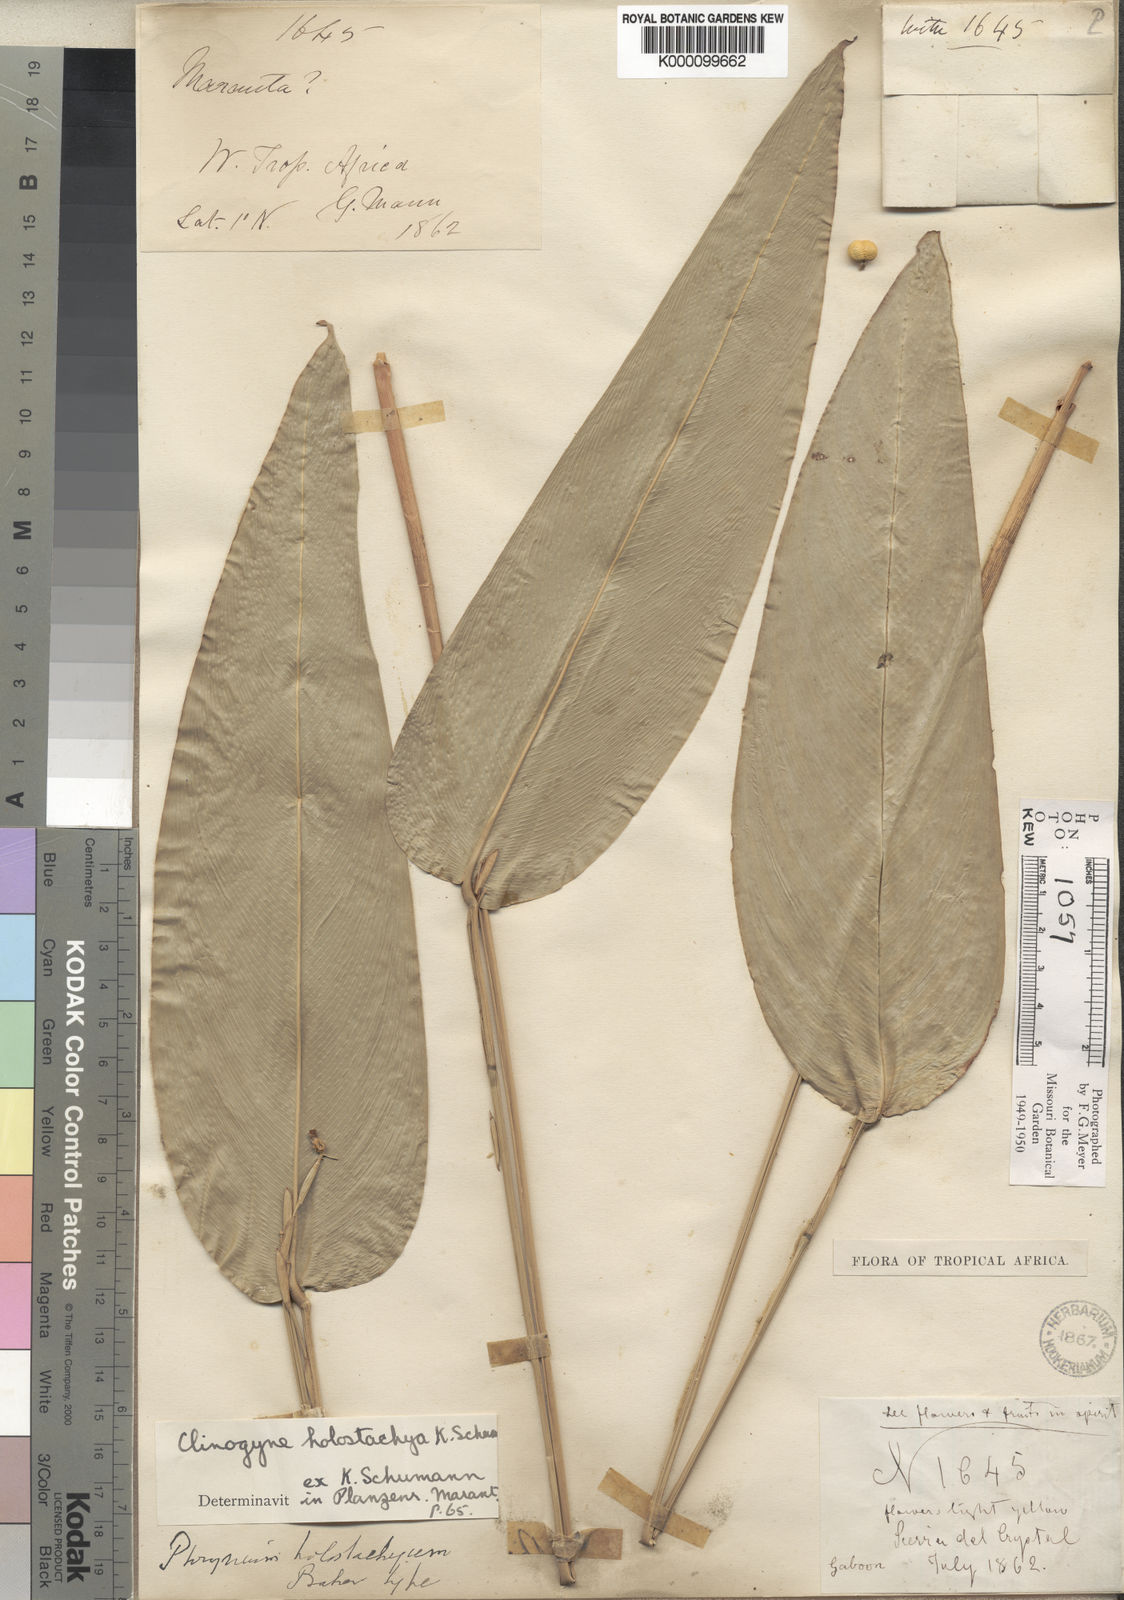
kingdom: Plantae
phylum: Tracheophyta
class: Liliopsida
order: Zingiberales
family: Marantaceae
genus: Marantochloa
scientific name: Marantochloa monophylla
